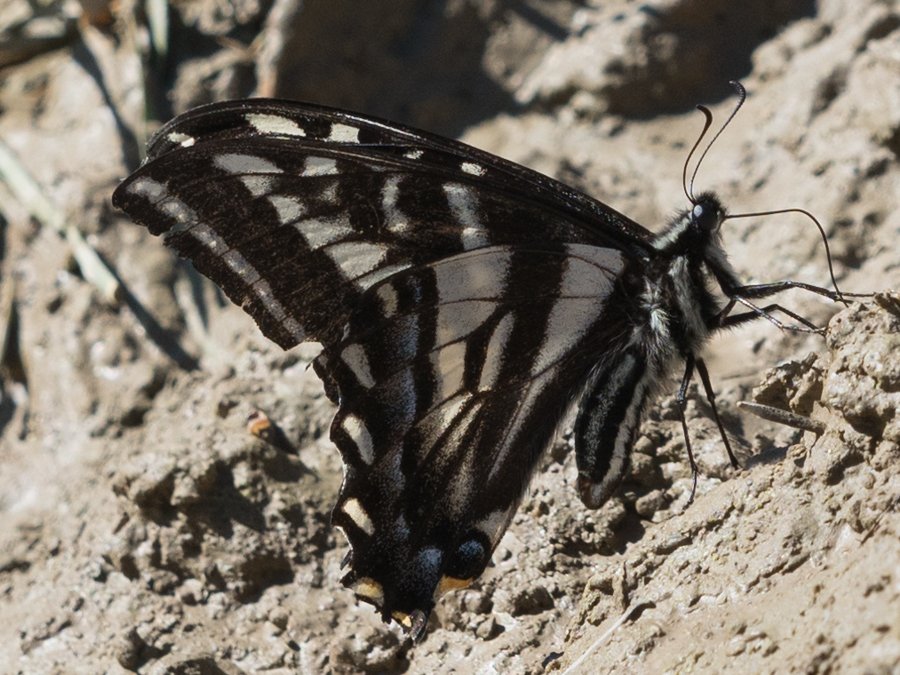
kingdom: Animalia
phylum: Arthropoda
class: Insecta
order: Lepidoptera
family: Papilionidae
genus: Pterourus
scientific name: Pterourus eurymedon
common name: Pale Swallowtail
